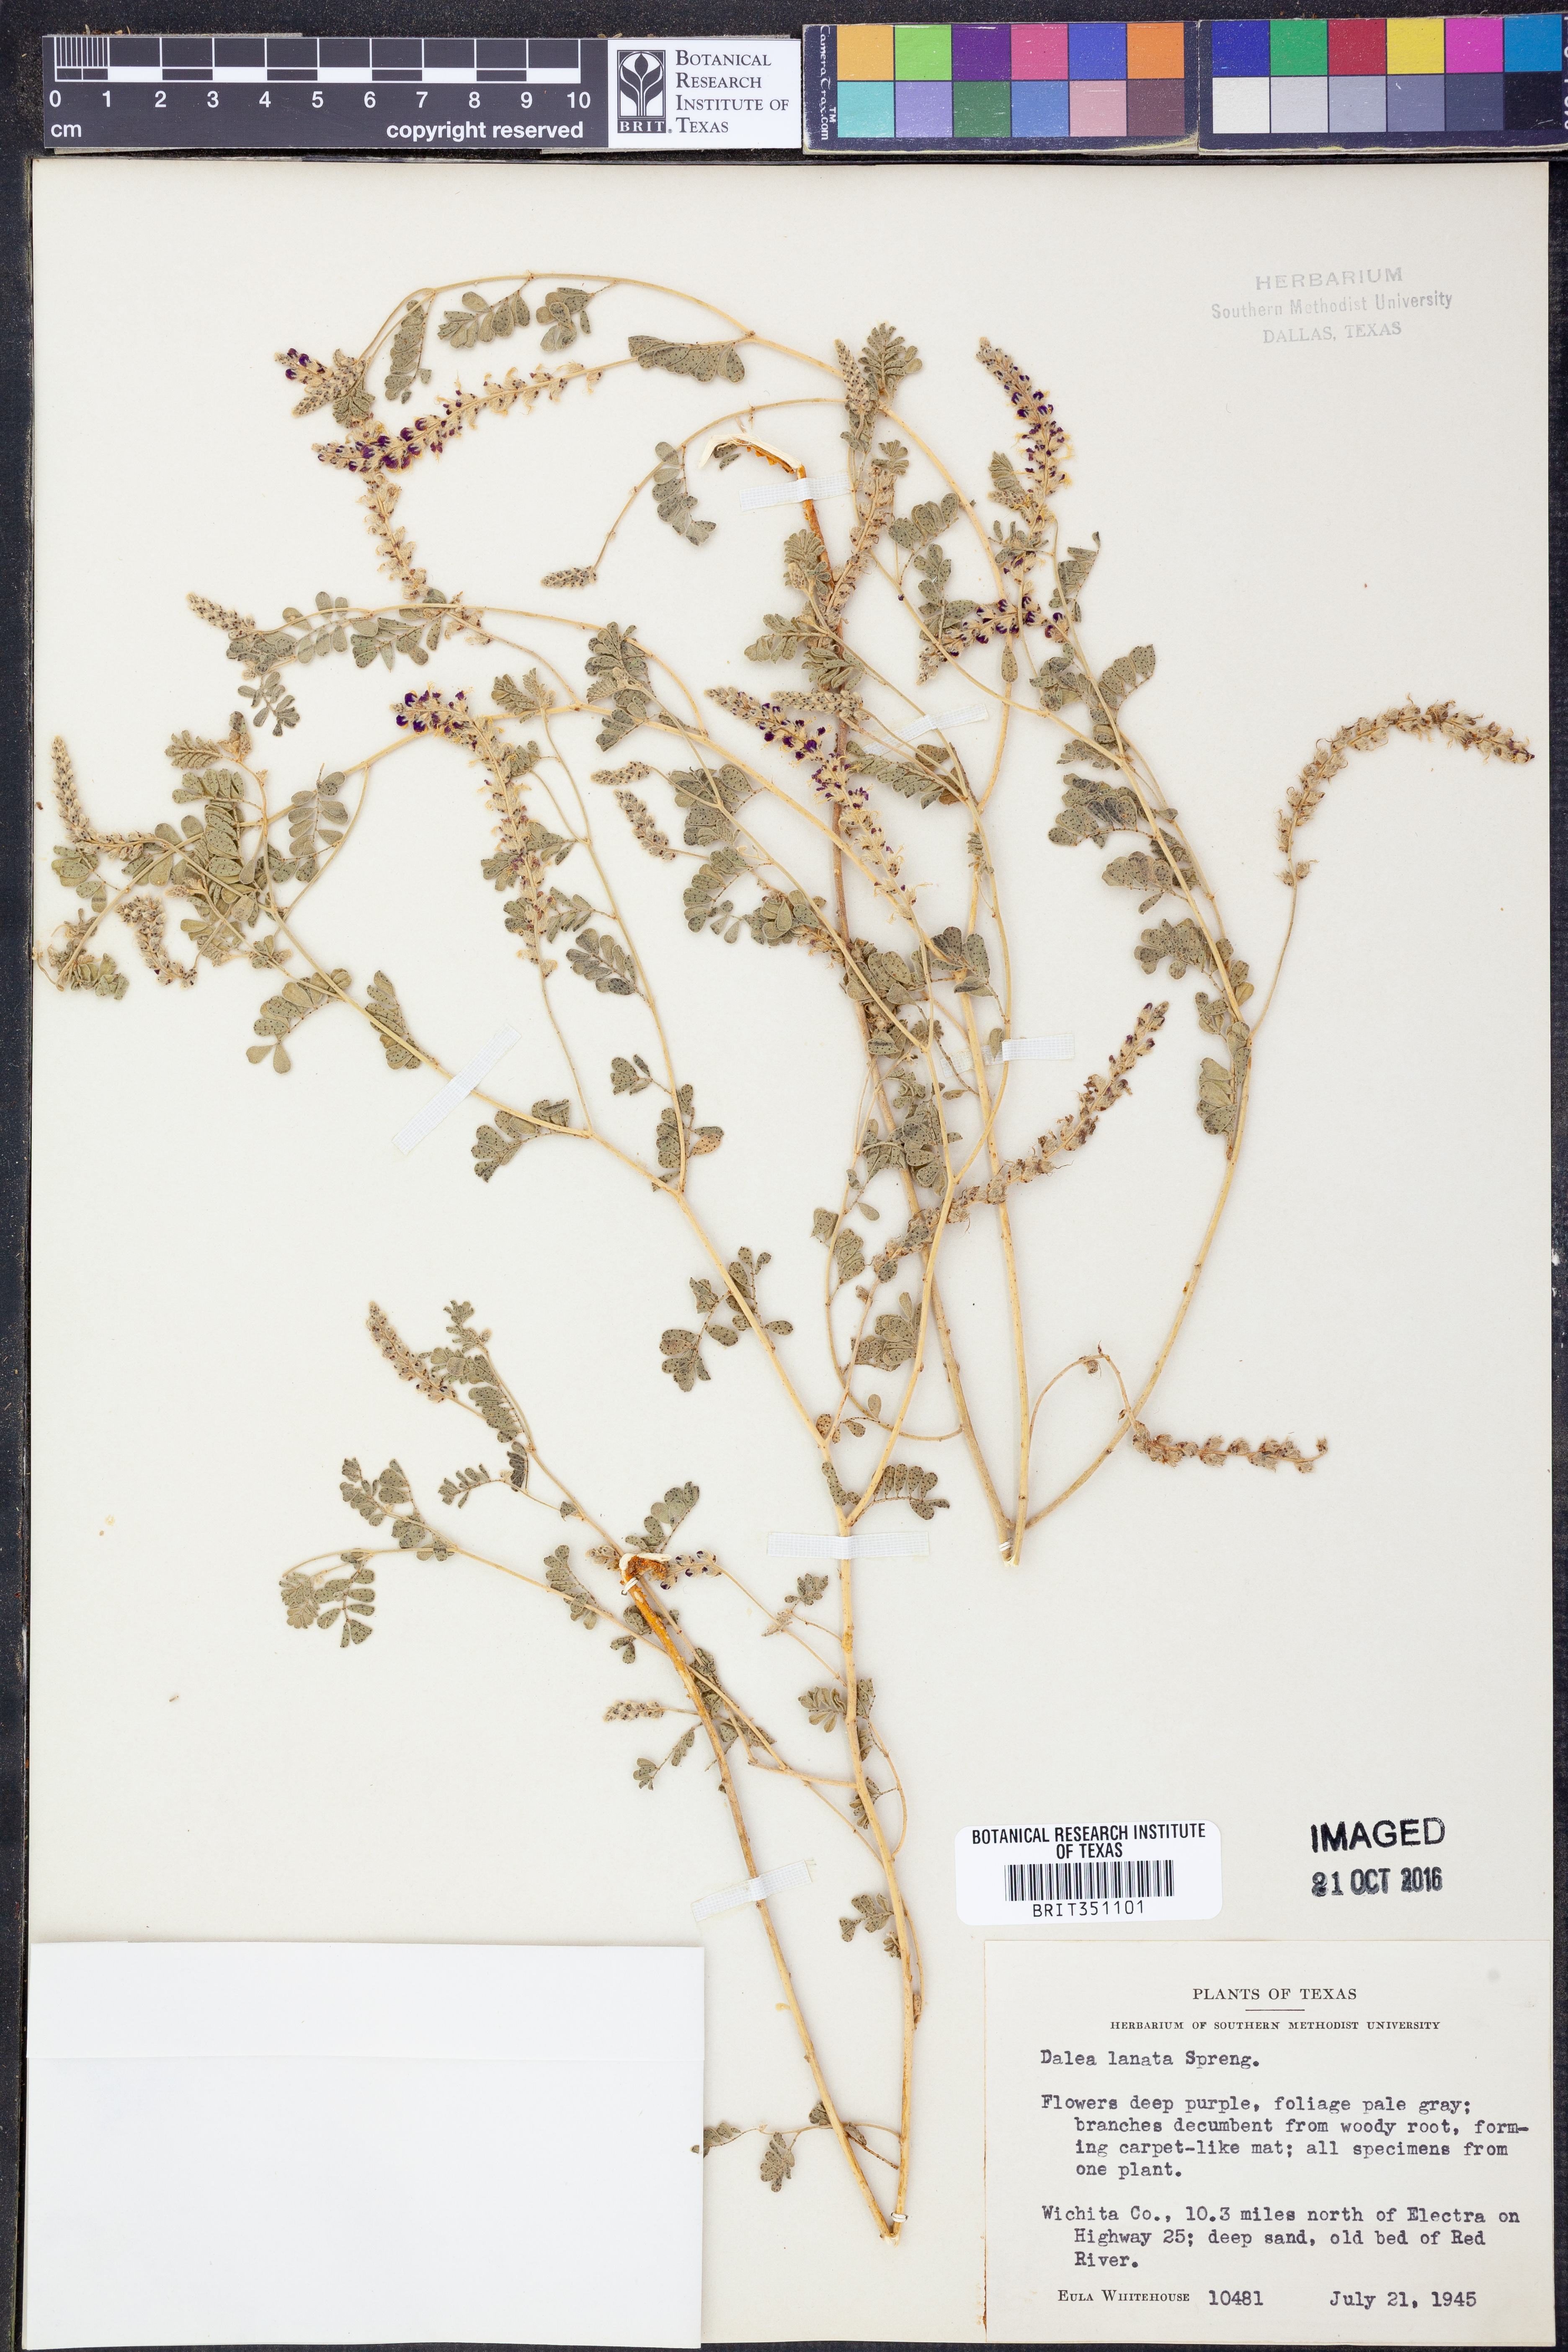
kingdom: Plantae
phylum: Tracheophyta
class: Magnoliopsida
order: Fabales
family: Fabaceae
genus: Dalea
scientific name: Dalea lanata
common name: Woolly dalea
